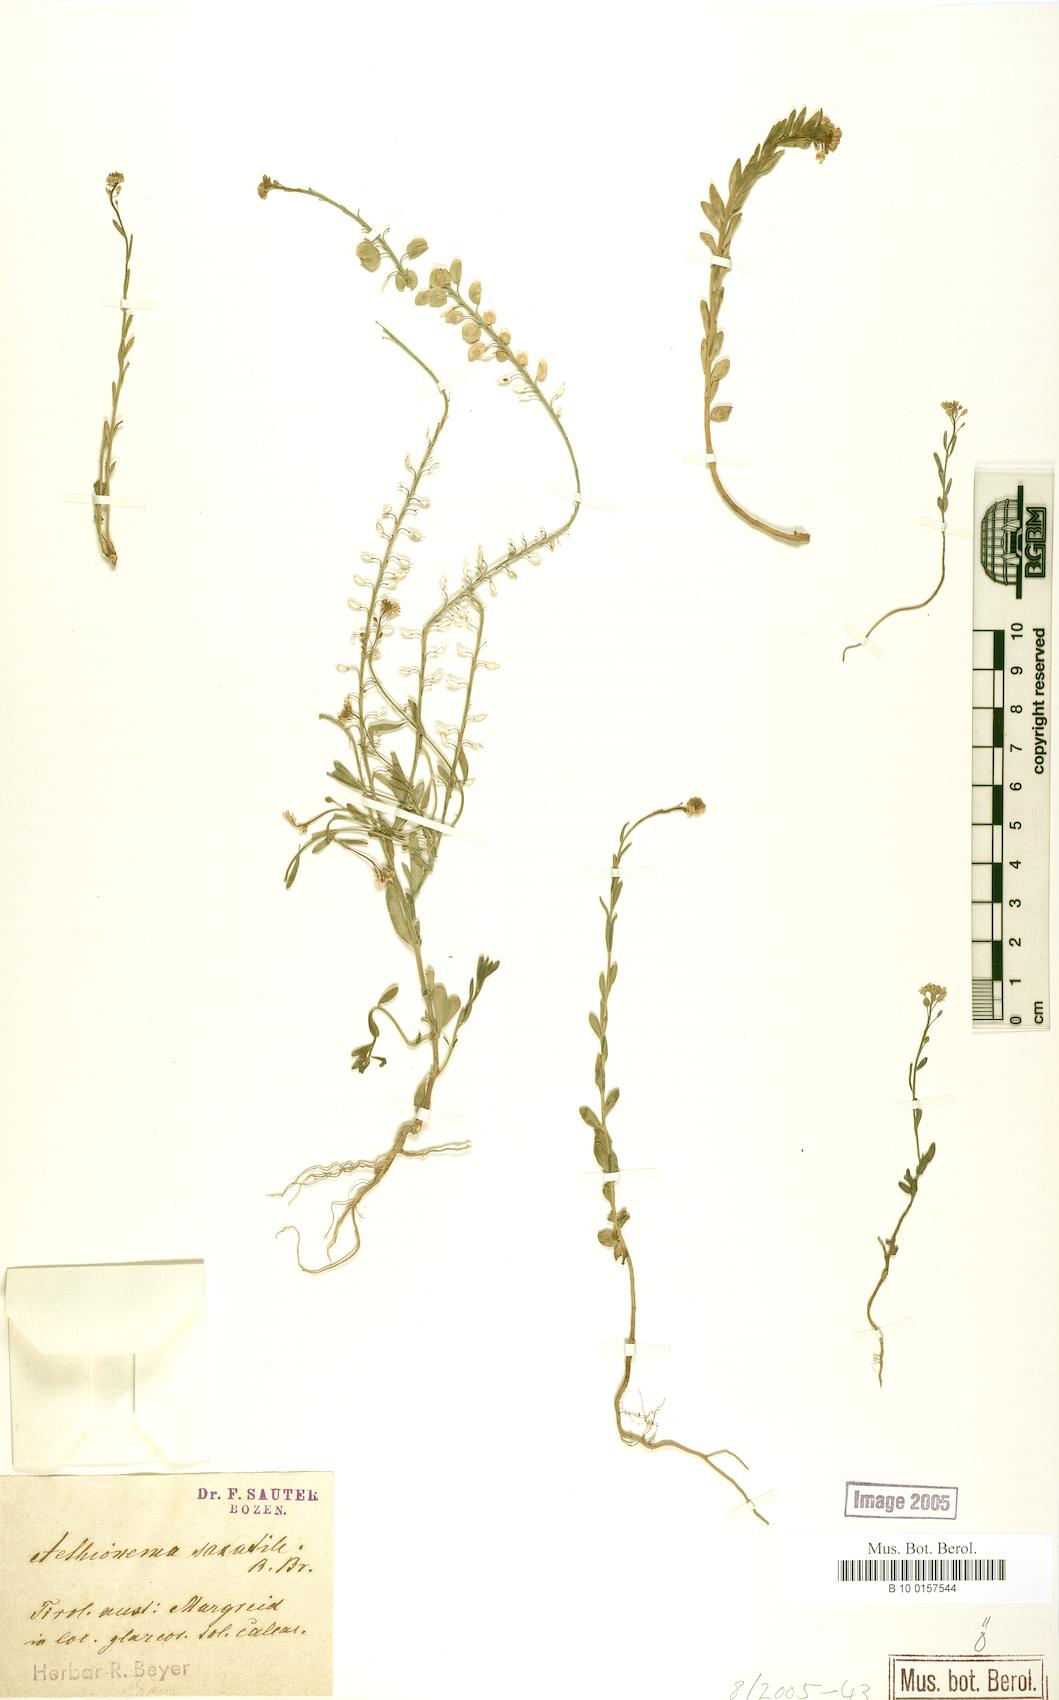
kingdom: Plantae
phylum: Tracheophyta
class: Magnoliopsida
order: Brassicales
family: Brassicaceae
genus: Aethionema
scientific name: Aethionema saxatile
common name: Burnt candytuft
